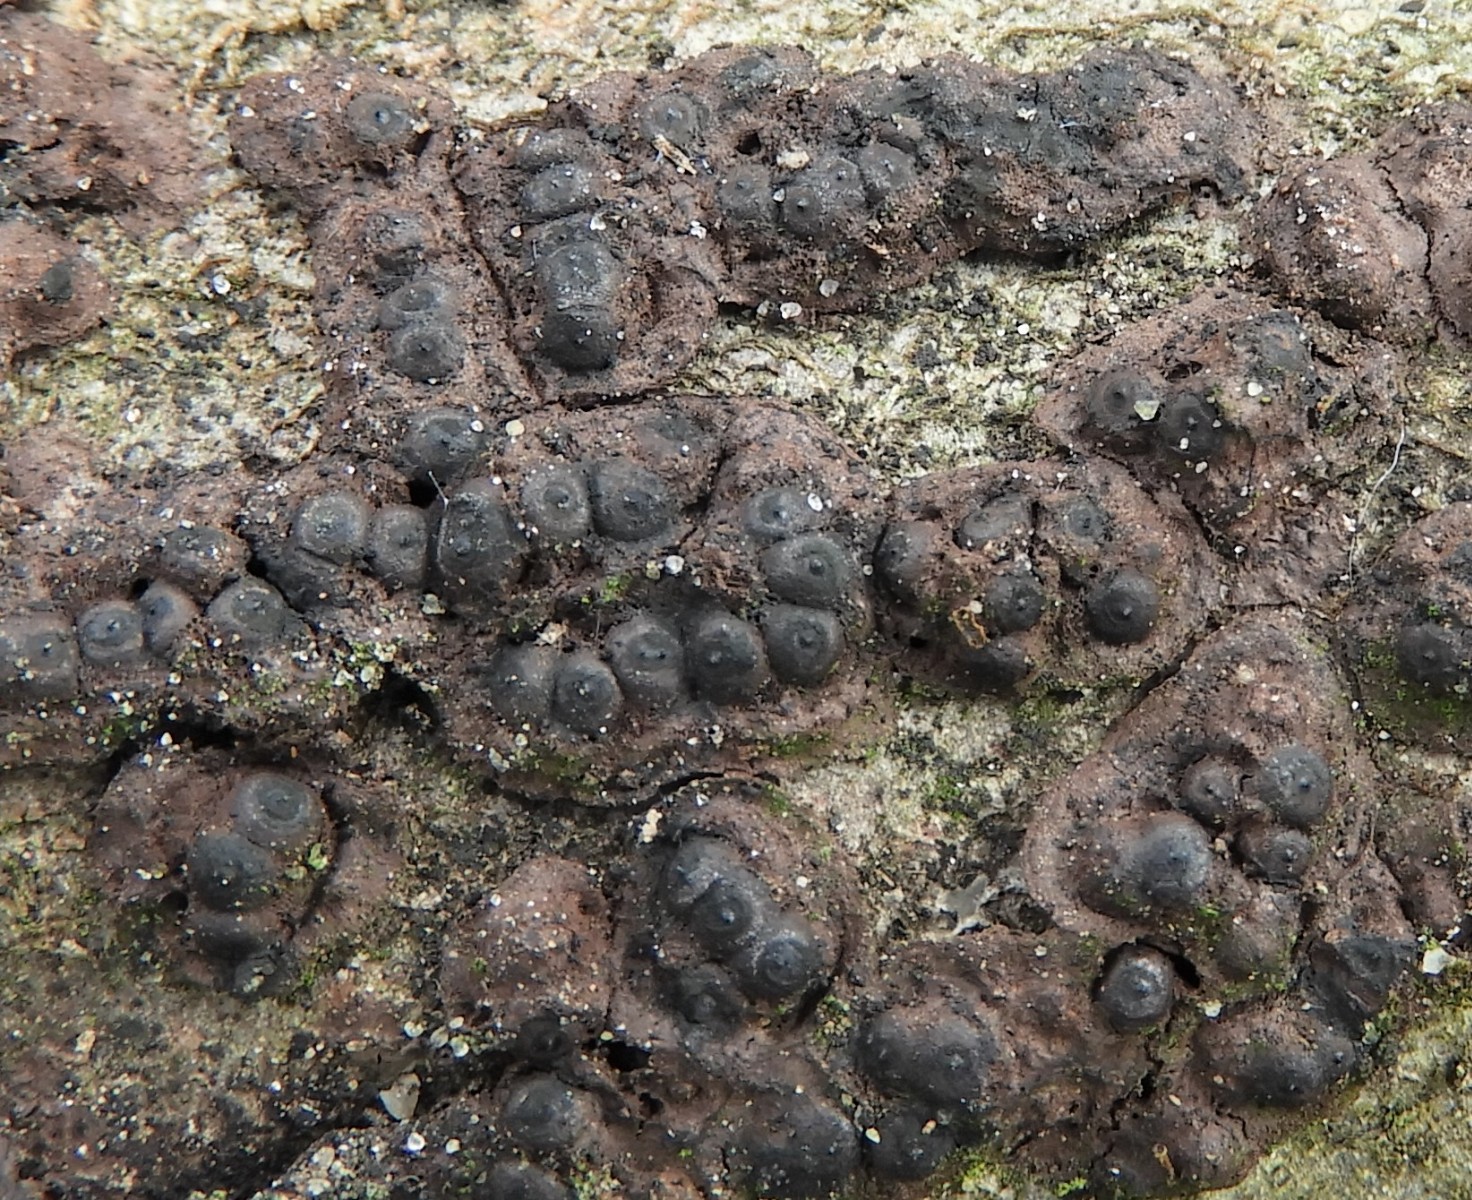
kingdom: Fungi
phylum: Ascomycota
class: Sordariomycetes
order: Xylariales
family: Xylariaceae
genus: Rosellinia
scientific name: Rosellinia
